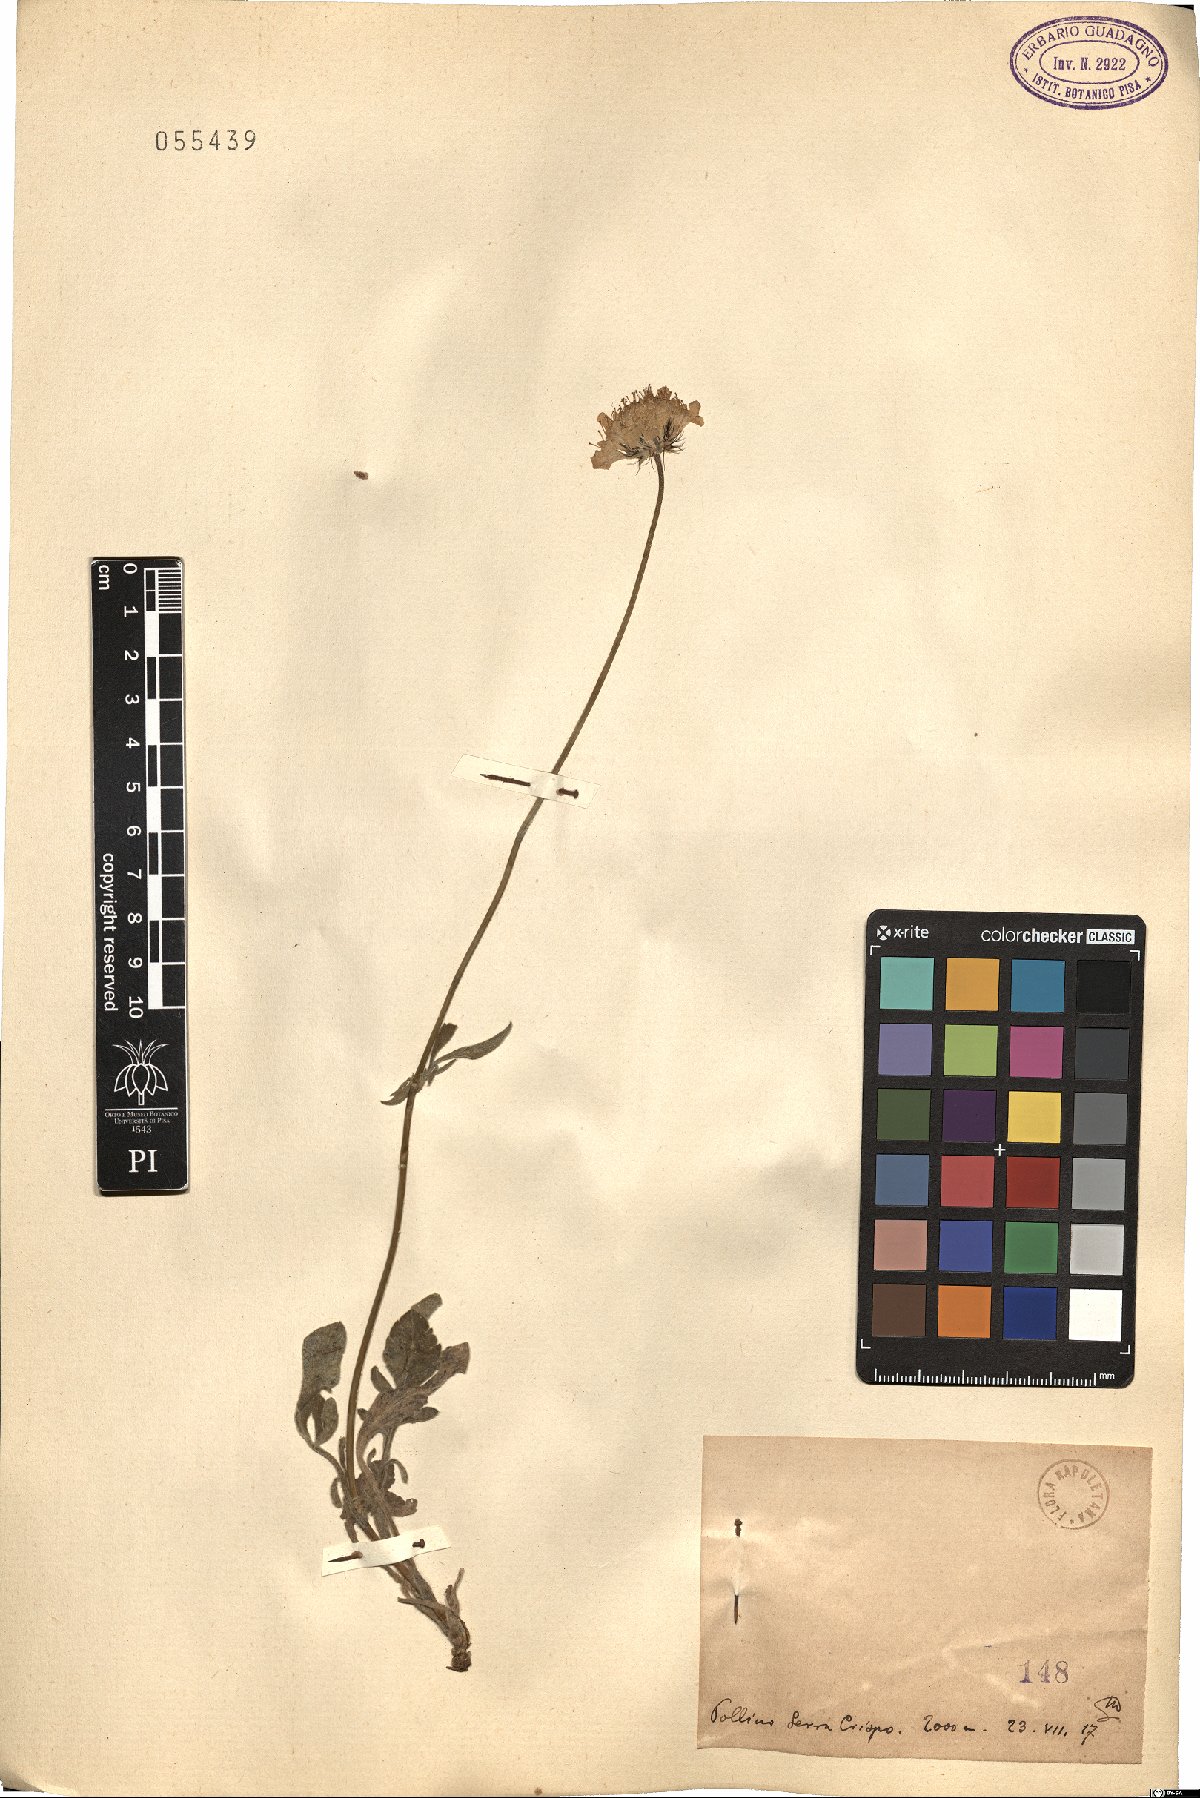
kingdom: Plantae
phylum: Tracheophyta
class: Magnoliopsida
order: Dipsacales
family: Caprifoliaceae
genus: Scabiosa
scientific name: Scabiosa
